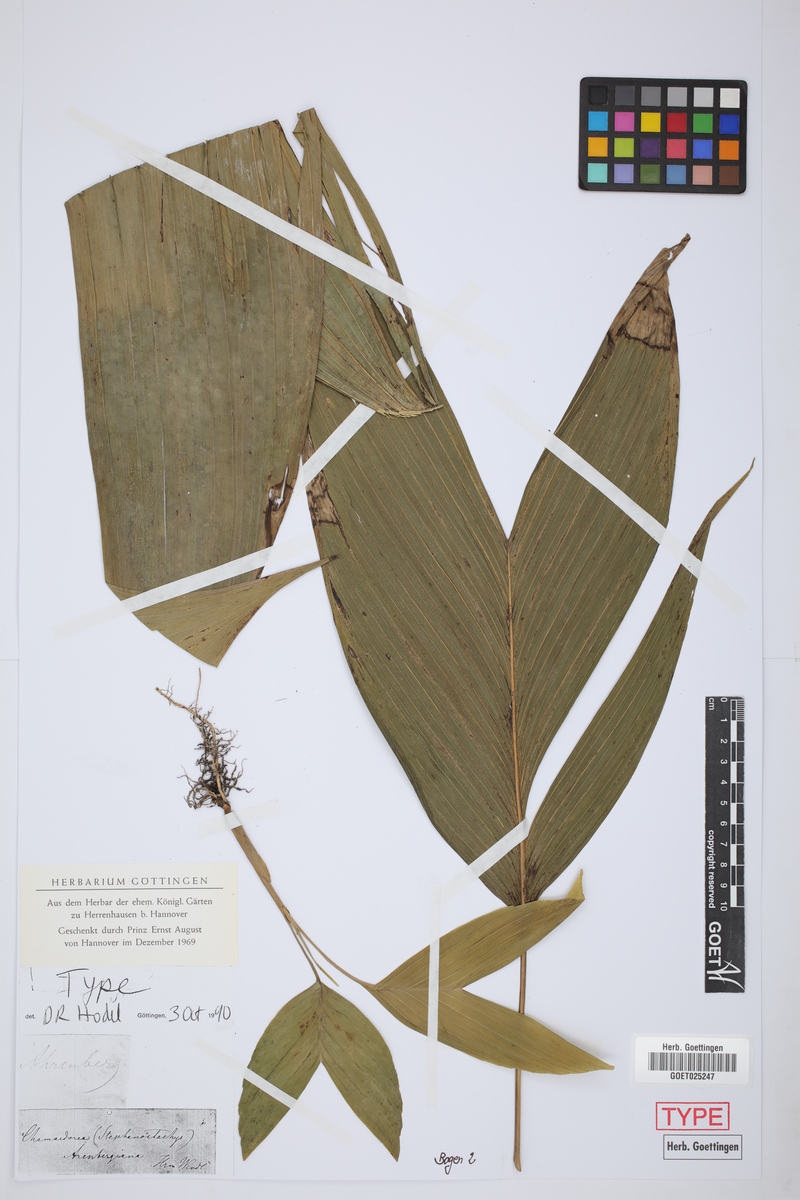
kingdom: Plantae
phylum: Tracheophyta
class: Liliopsida
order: Arecales
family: Arecaceae
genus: Chamaedorea
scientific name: Chamaedorea arenbergiana
